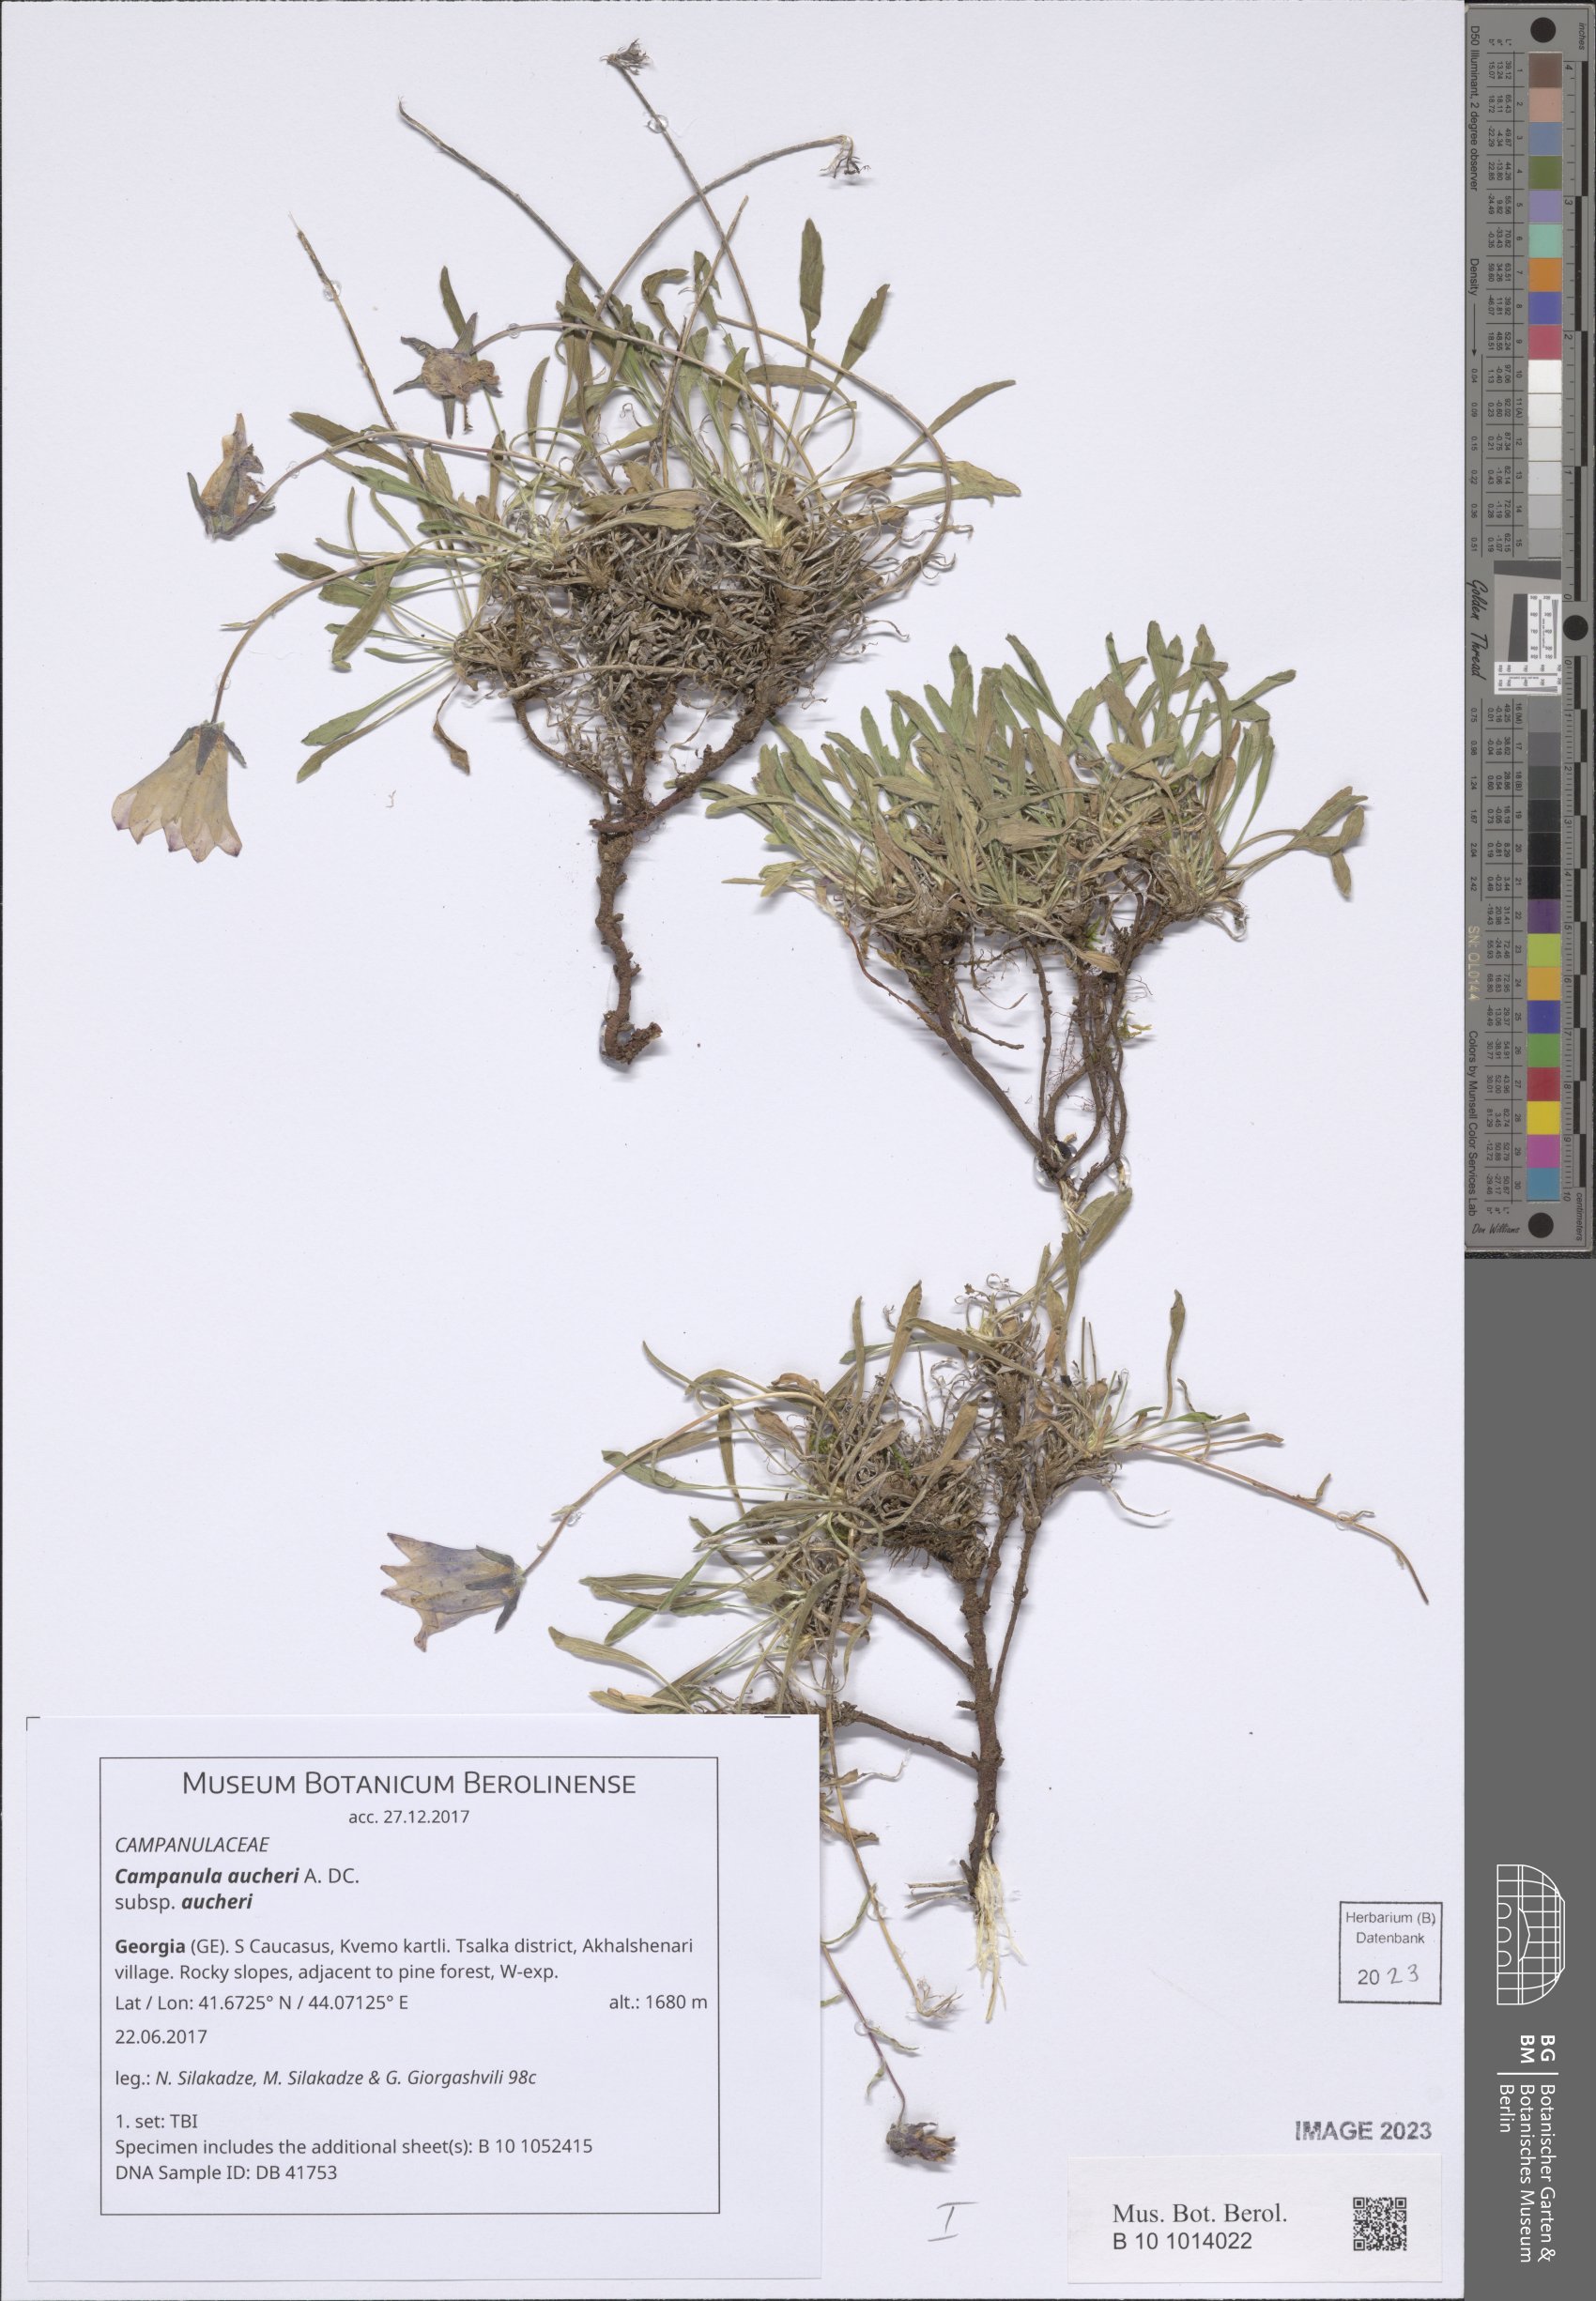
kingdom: Plantae
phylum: Tracheophyta
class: Magnoliopsida
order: Asterales
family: Campanulaceae
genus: Campanula
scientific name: Campanula saxifraga
